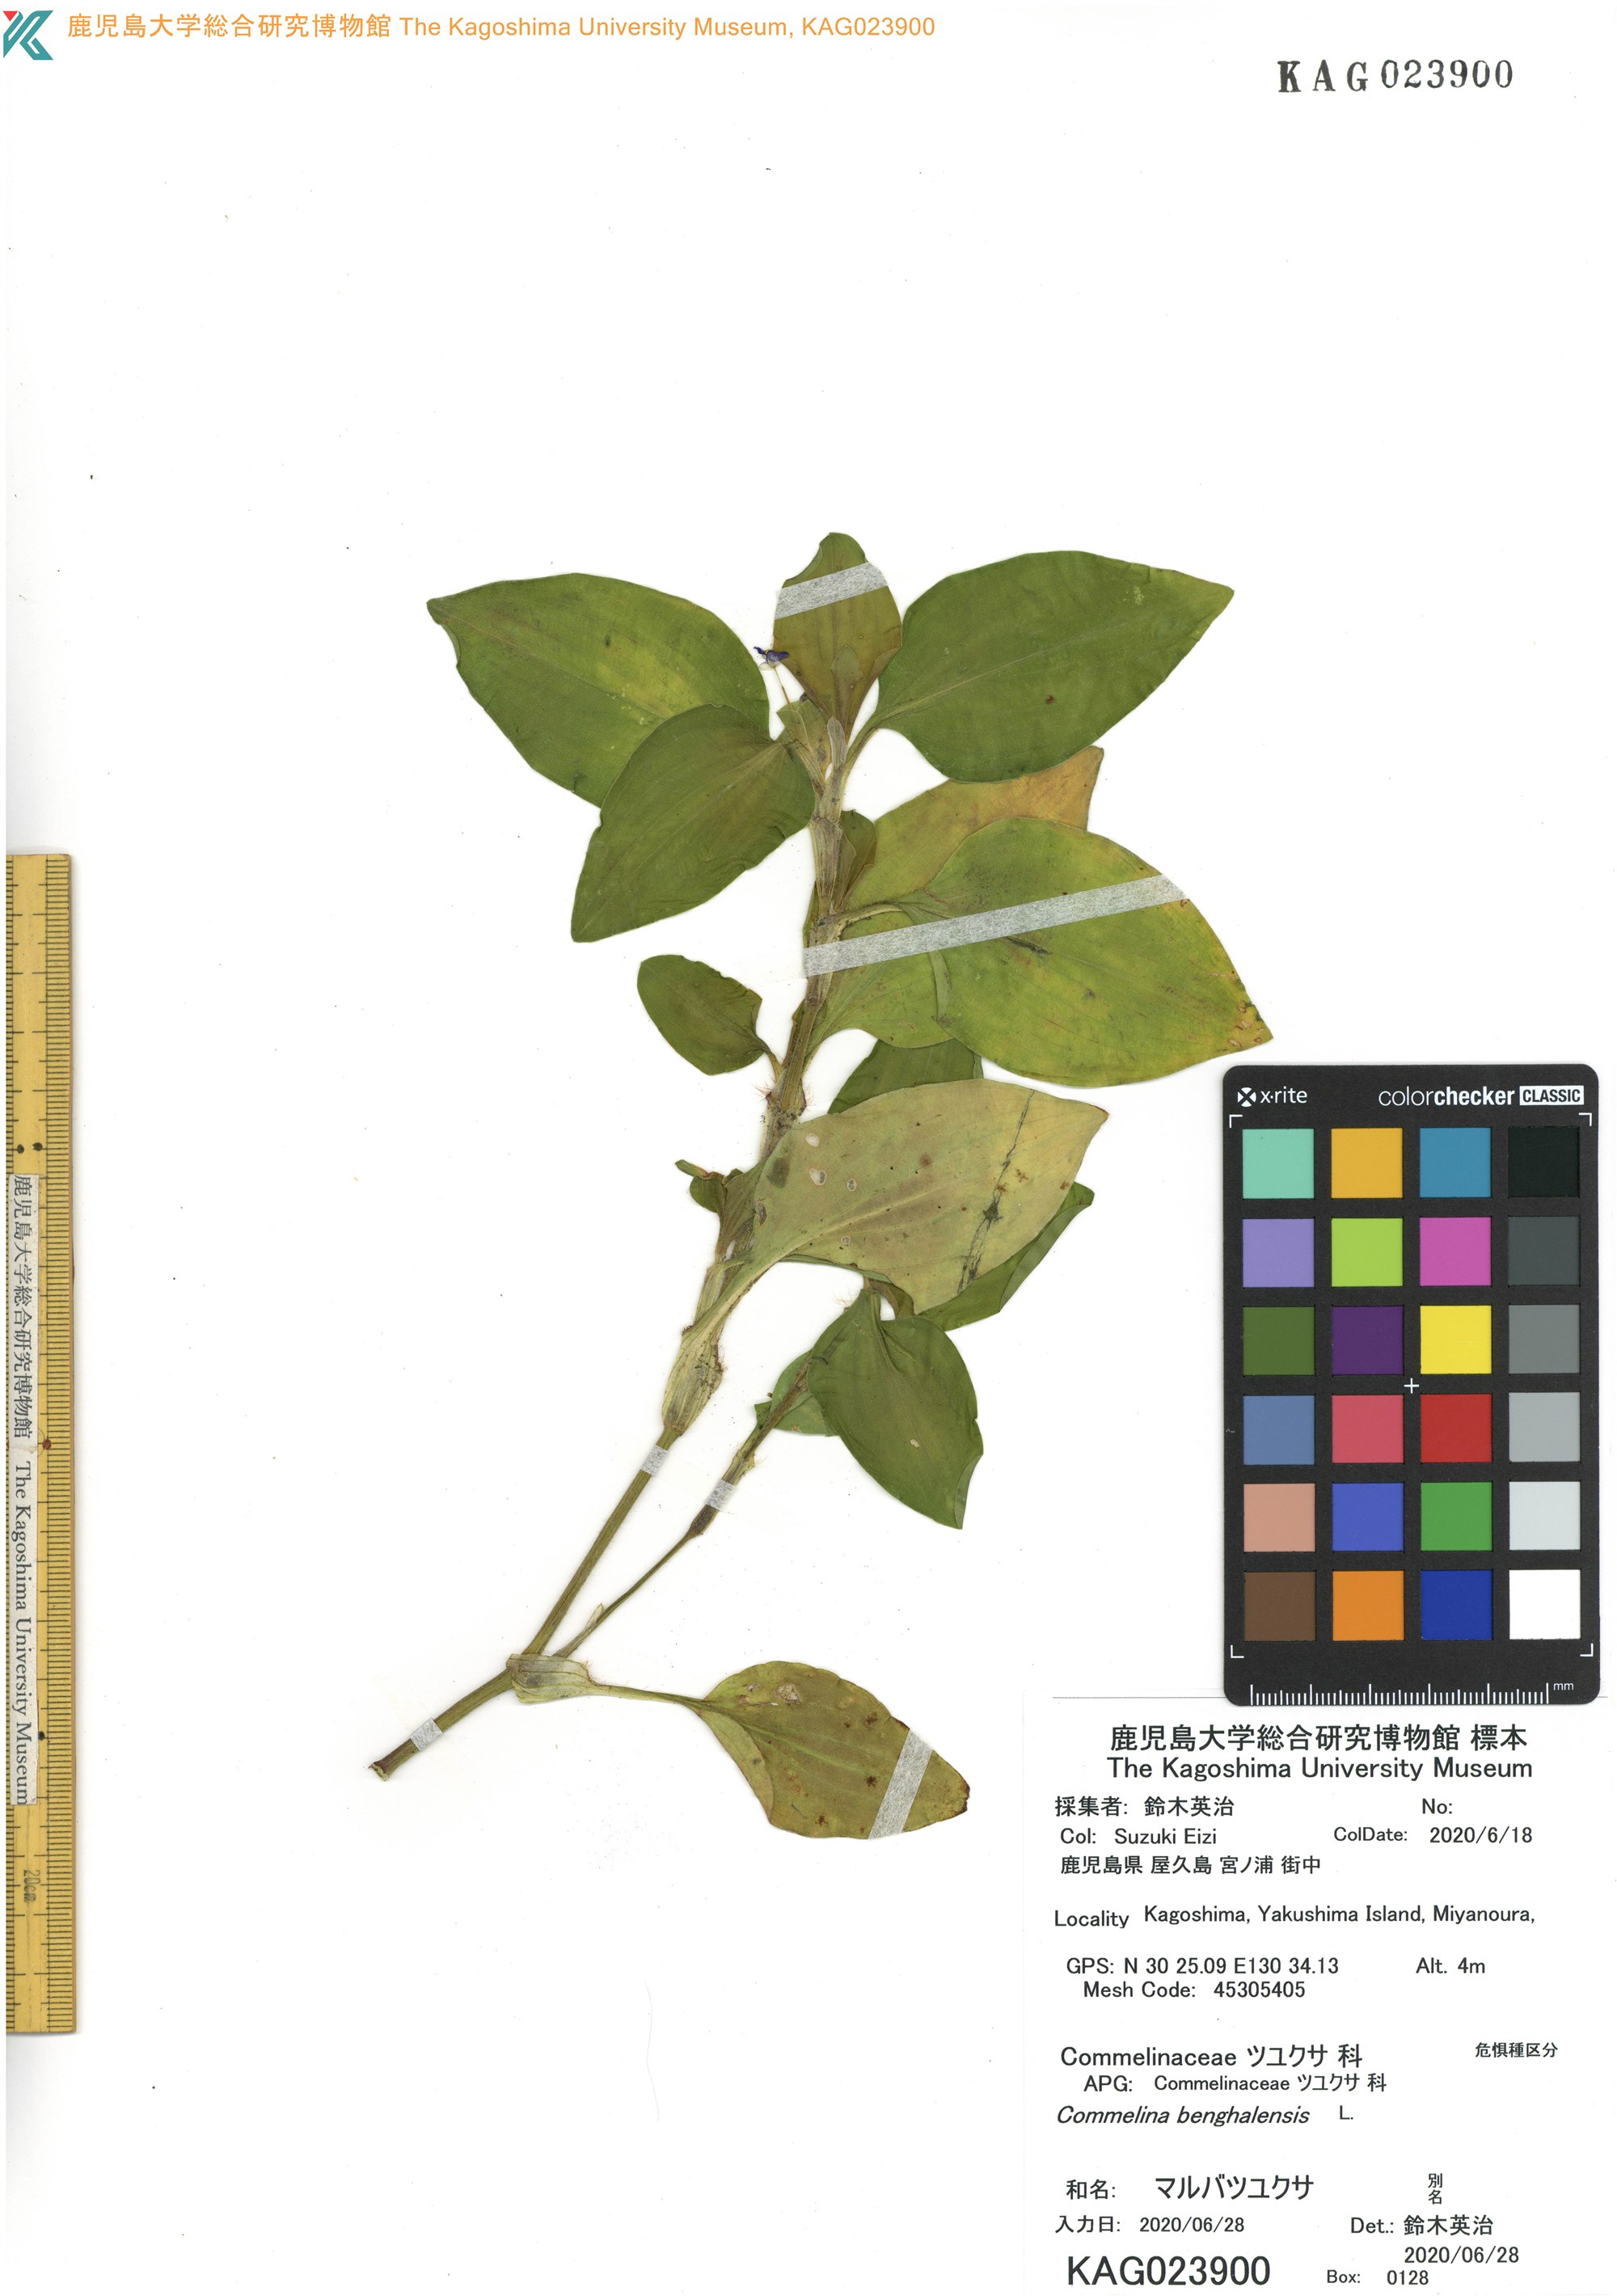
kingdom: Plantae
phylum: Tracheophyta
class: Liliopsida
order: Commelinales
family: Commelinaceae
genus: Commelina
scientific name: Commelina benghalensis
